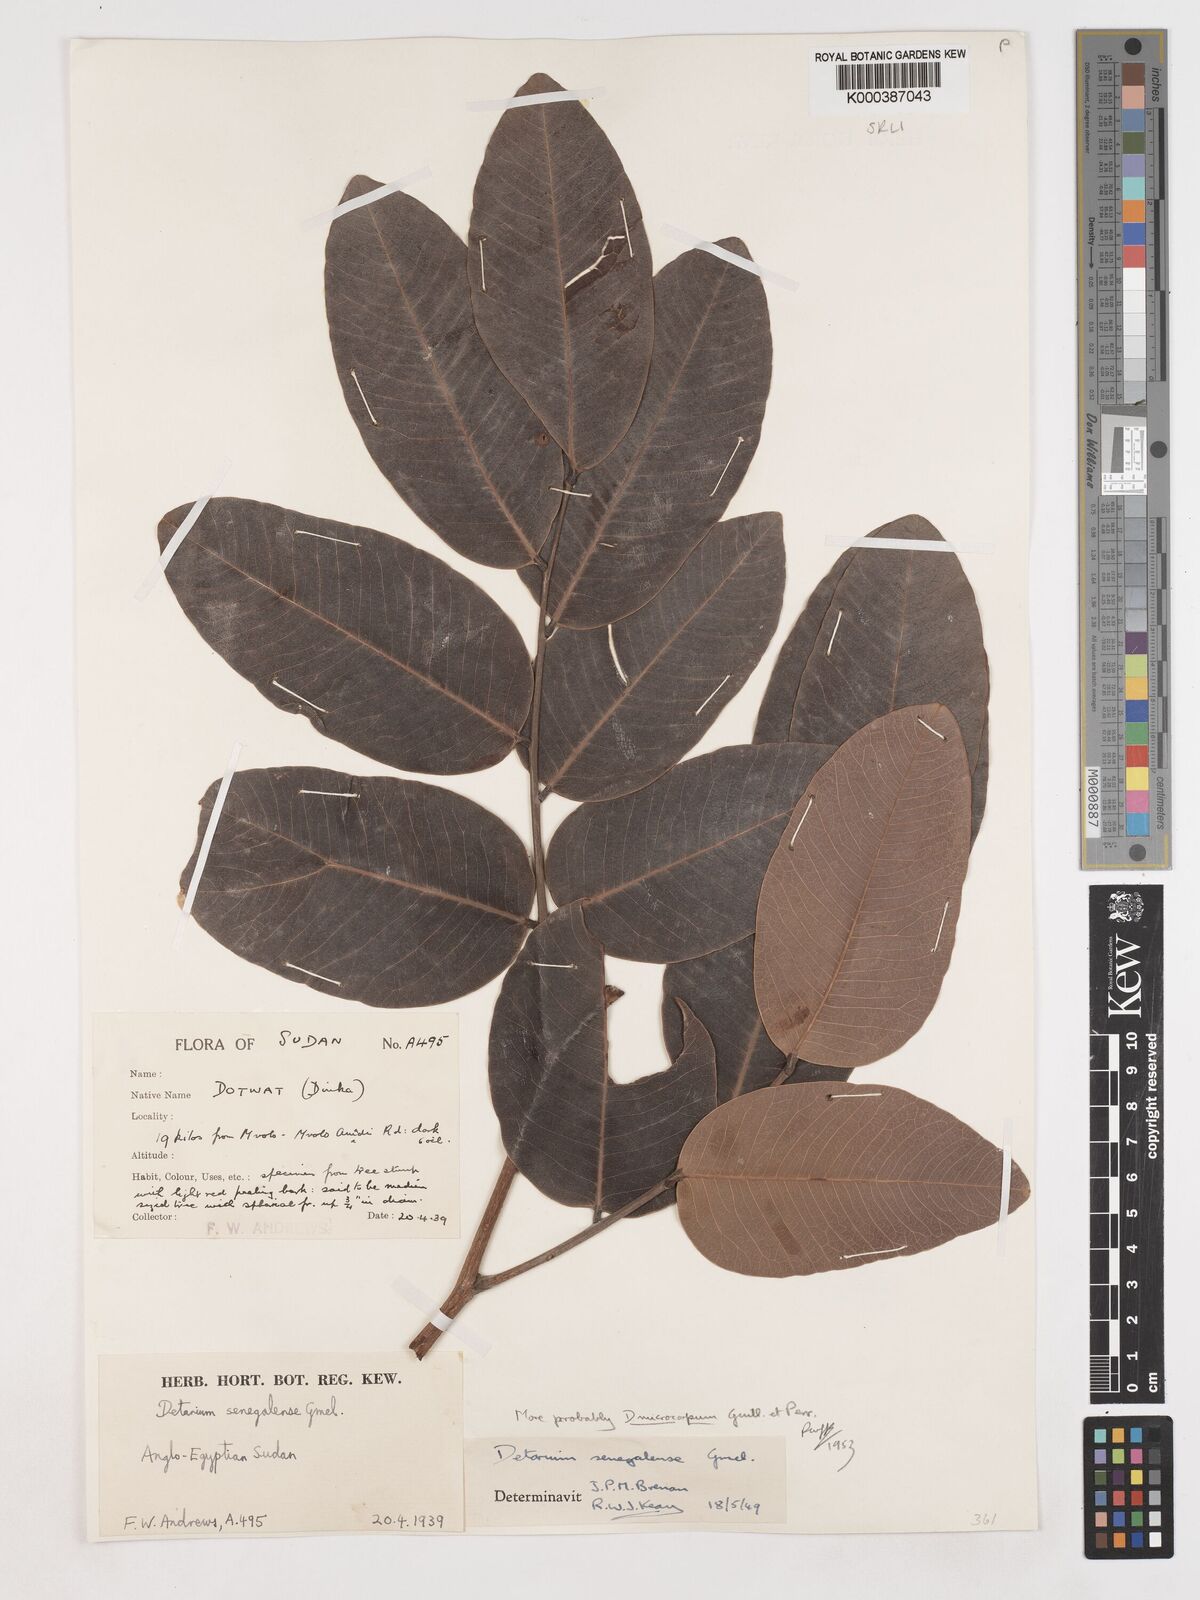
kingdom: Plantae
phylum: Tracheophyta
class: Magnoliopsida
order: Fabales
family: Fabaceae
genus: Detarium
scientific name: Detarium microcarpum
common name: Sweet dattock
